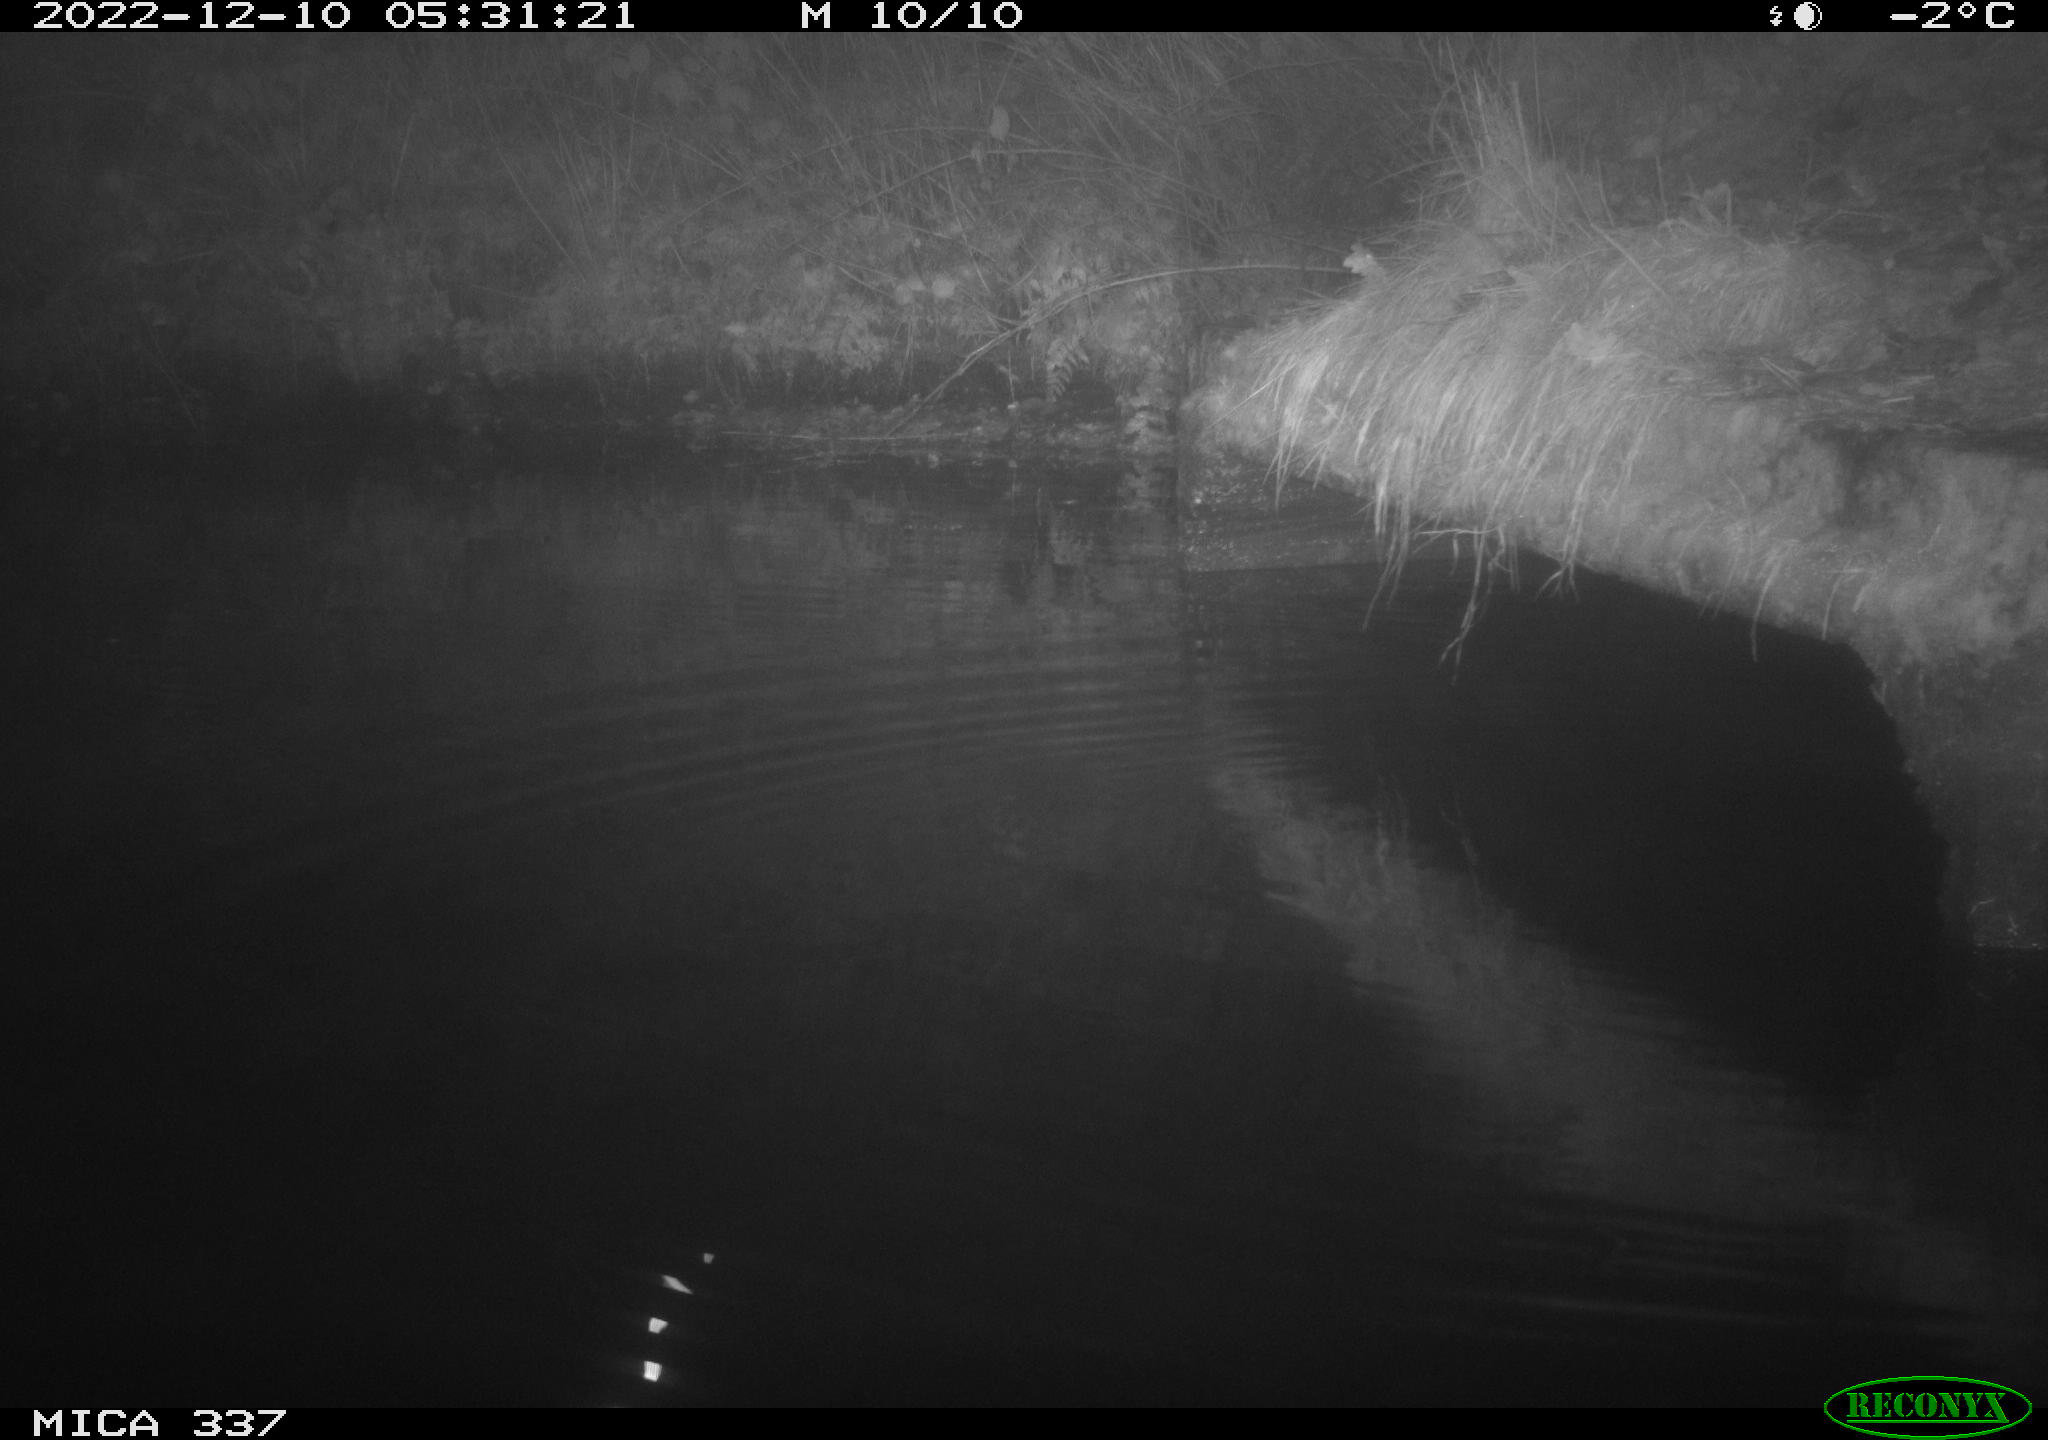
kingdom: Animalia
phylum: Chordata
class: Mammalia
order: Rodentia
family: Muridae
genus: Rattus
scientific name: Rattus norvegicus
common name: Brown rat
